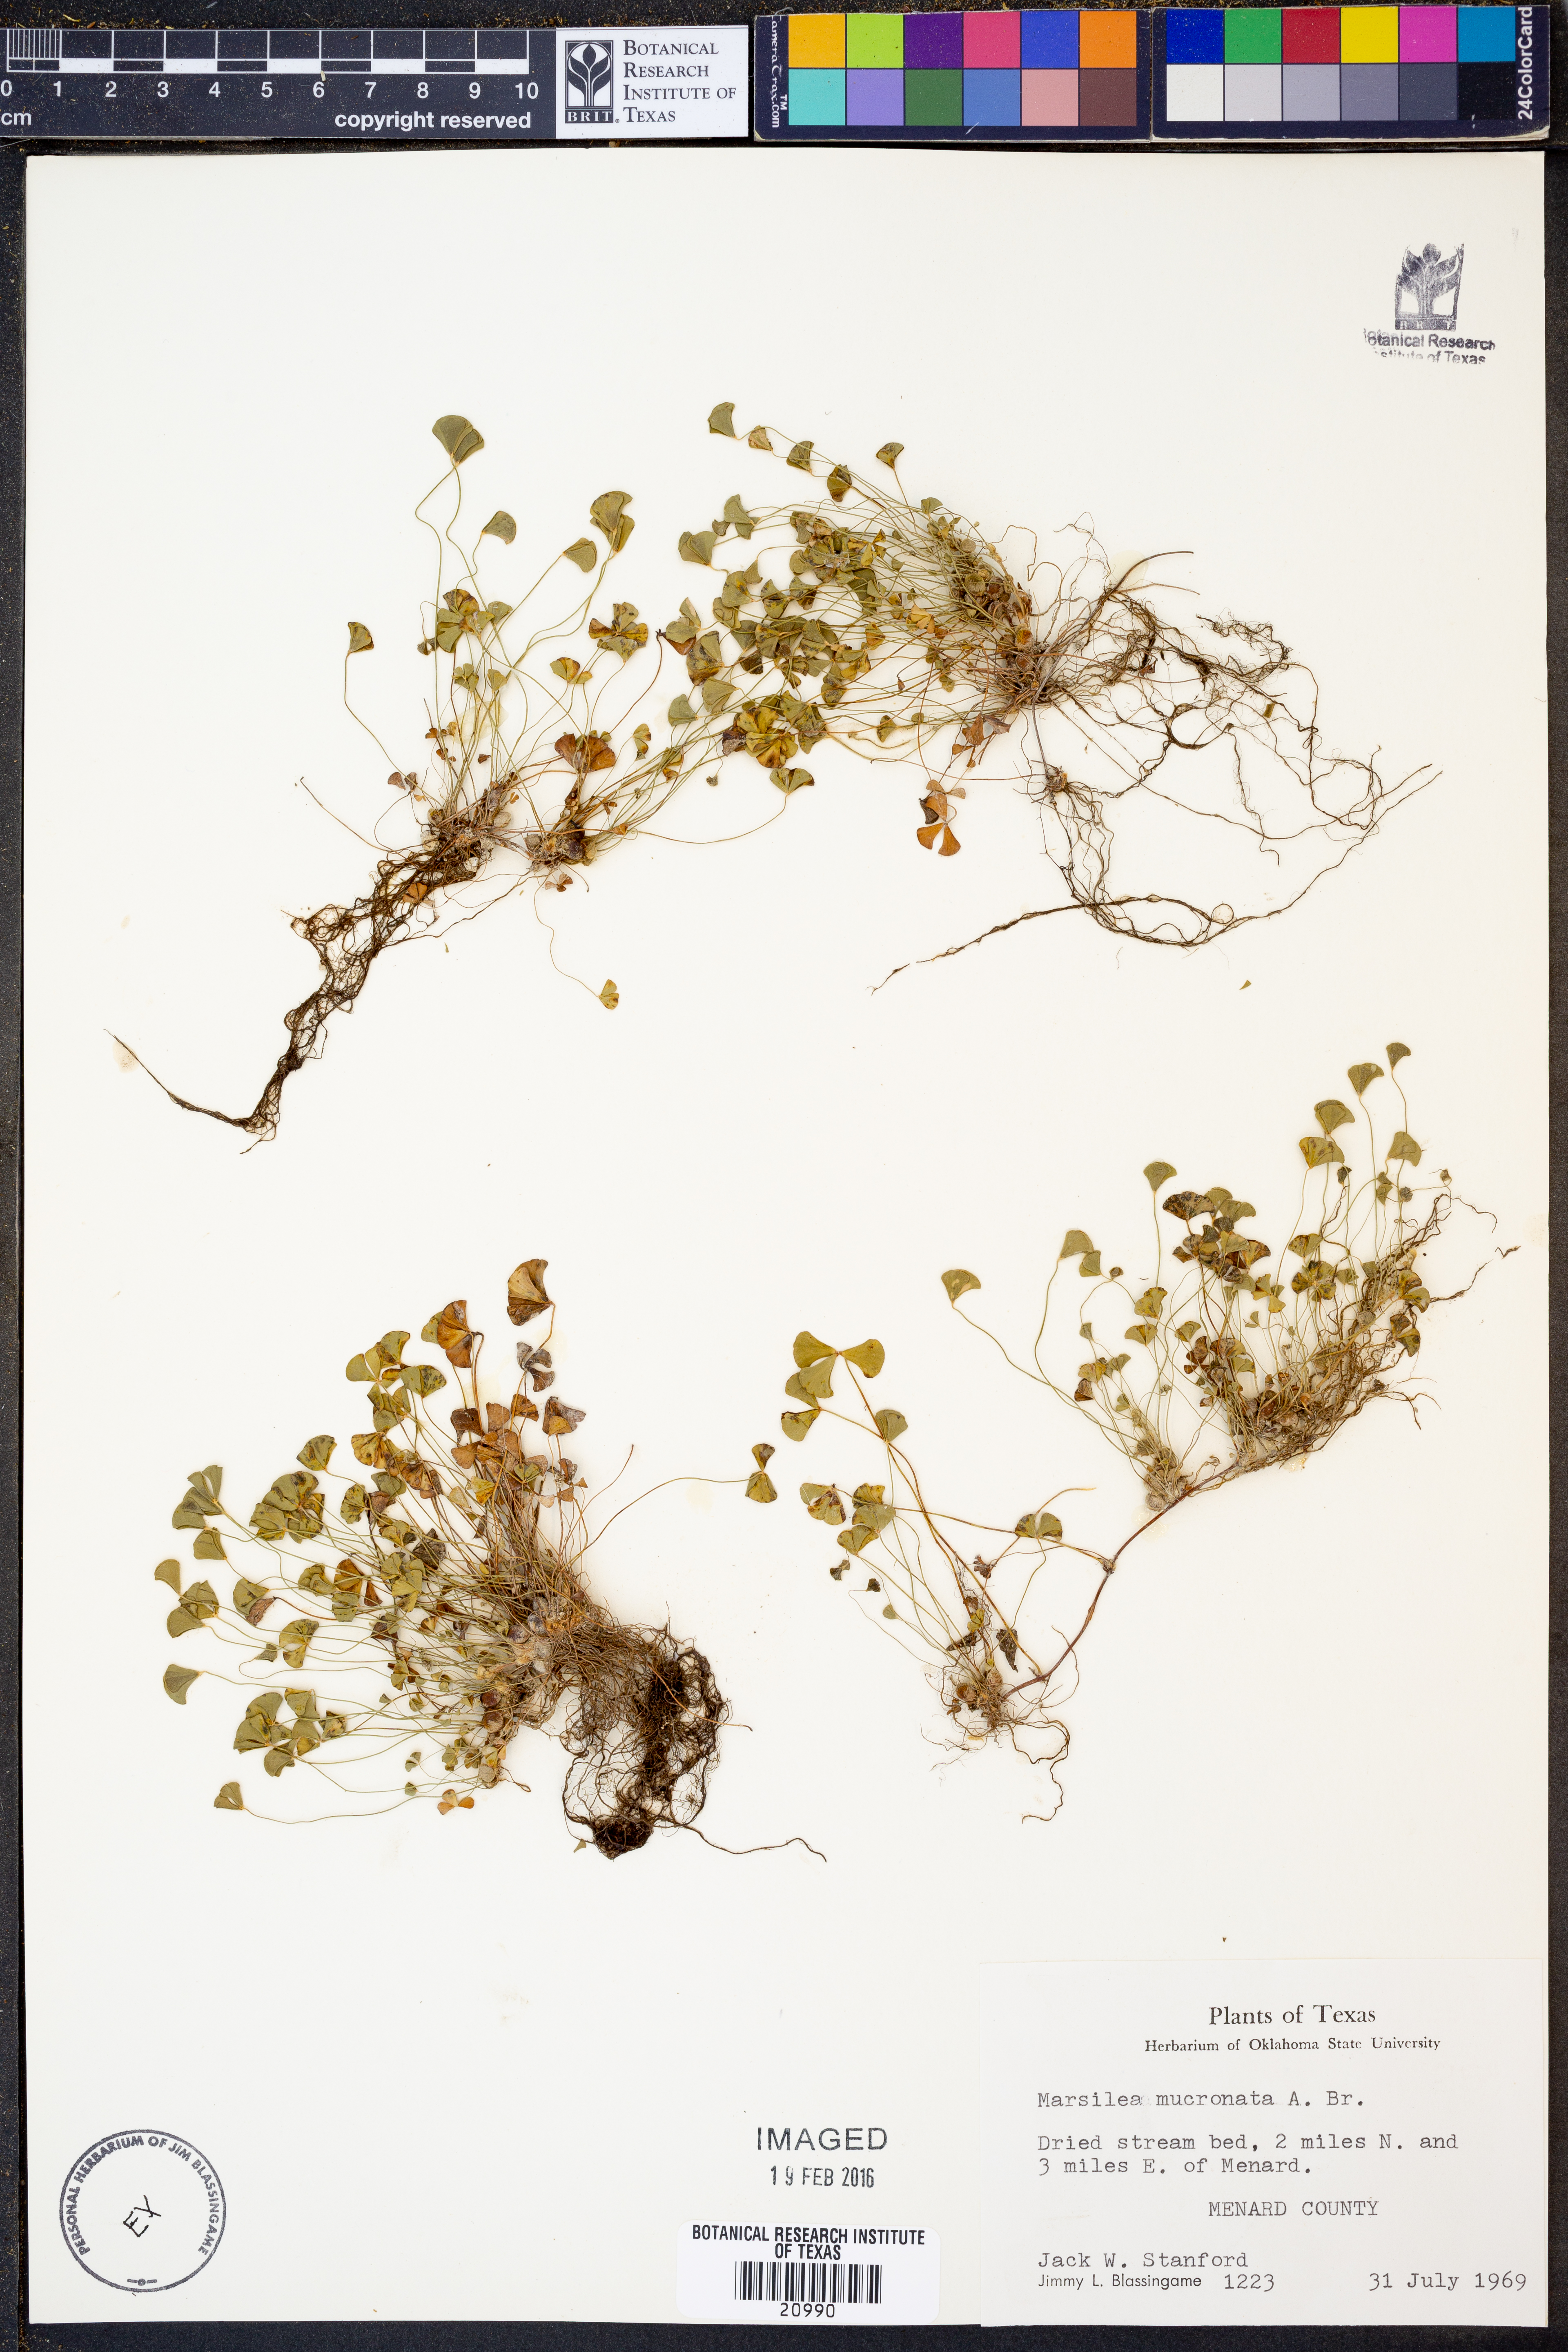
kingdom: Plantae
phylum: Tracheophyta
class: Polypodiopsida
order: Salviniales
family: Marsileaceae
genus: Marsilea
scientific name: Marsilea vestita
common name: Hooked-pepperwort
